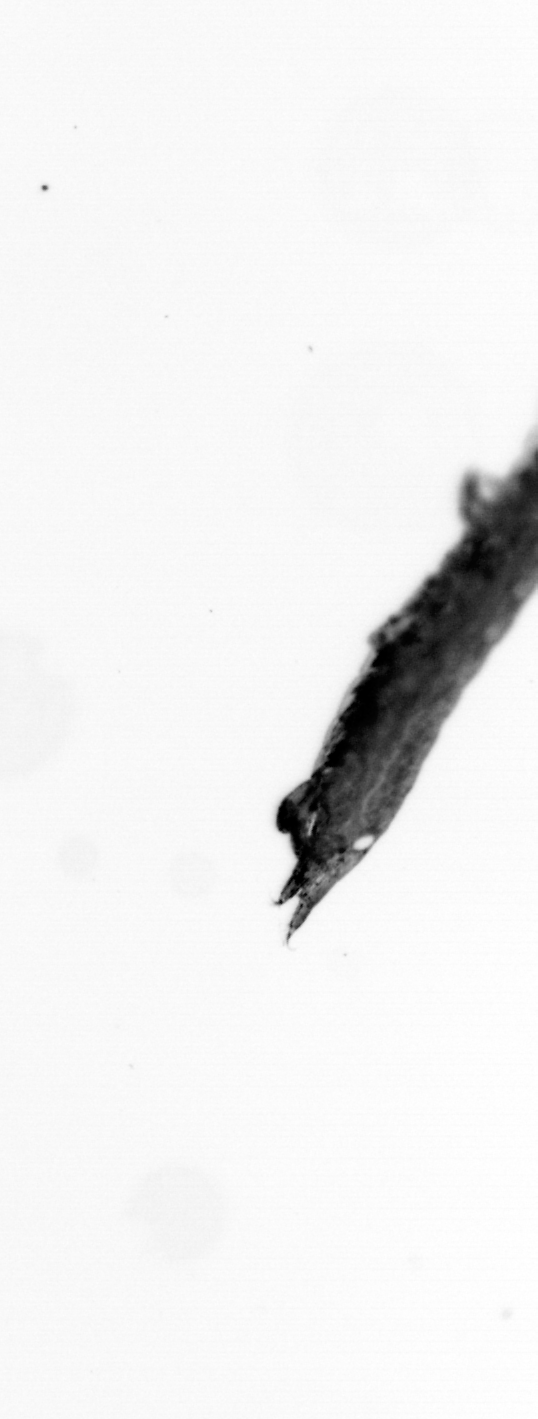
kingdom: Animalia
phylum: Annelida
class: Polychaeta
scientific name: Polychaeta
